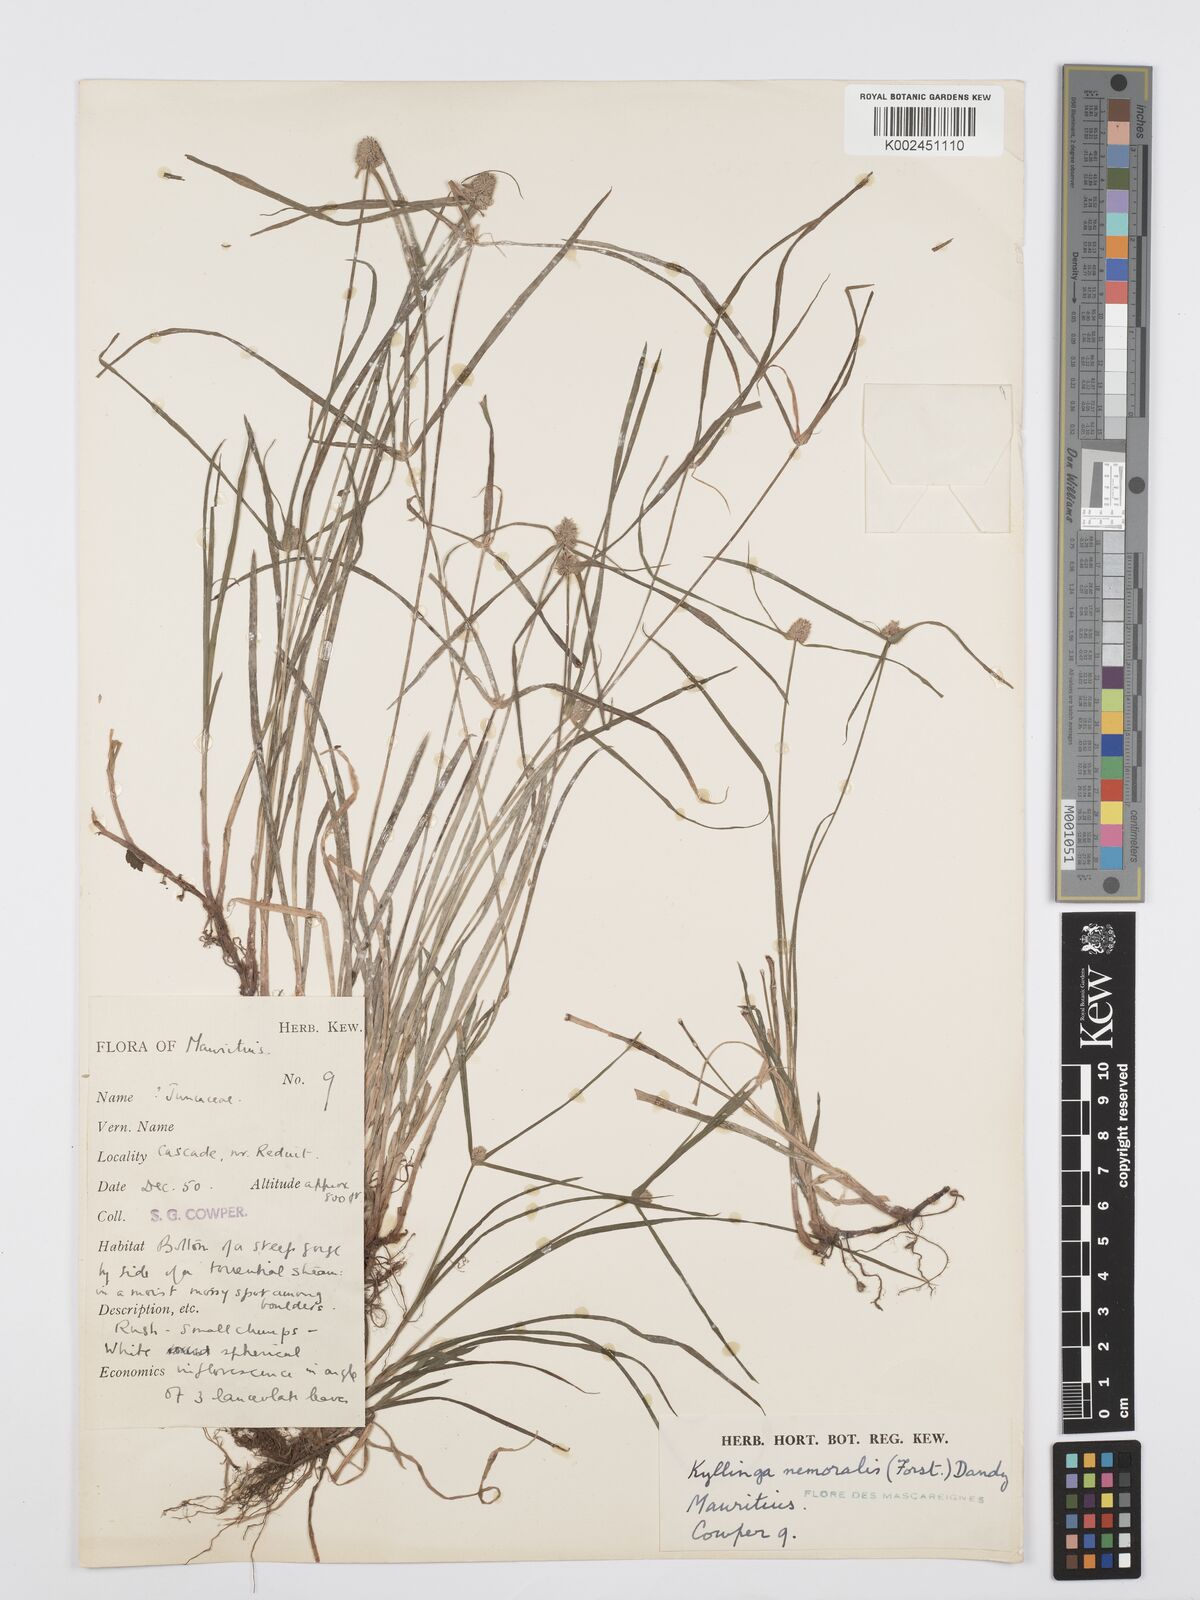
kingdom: Plantae
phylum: Tracheophyta
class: Liliopsida
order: Poales
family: Cyperaceae
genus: Cyperus
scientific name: Cyperus nemoralis
